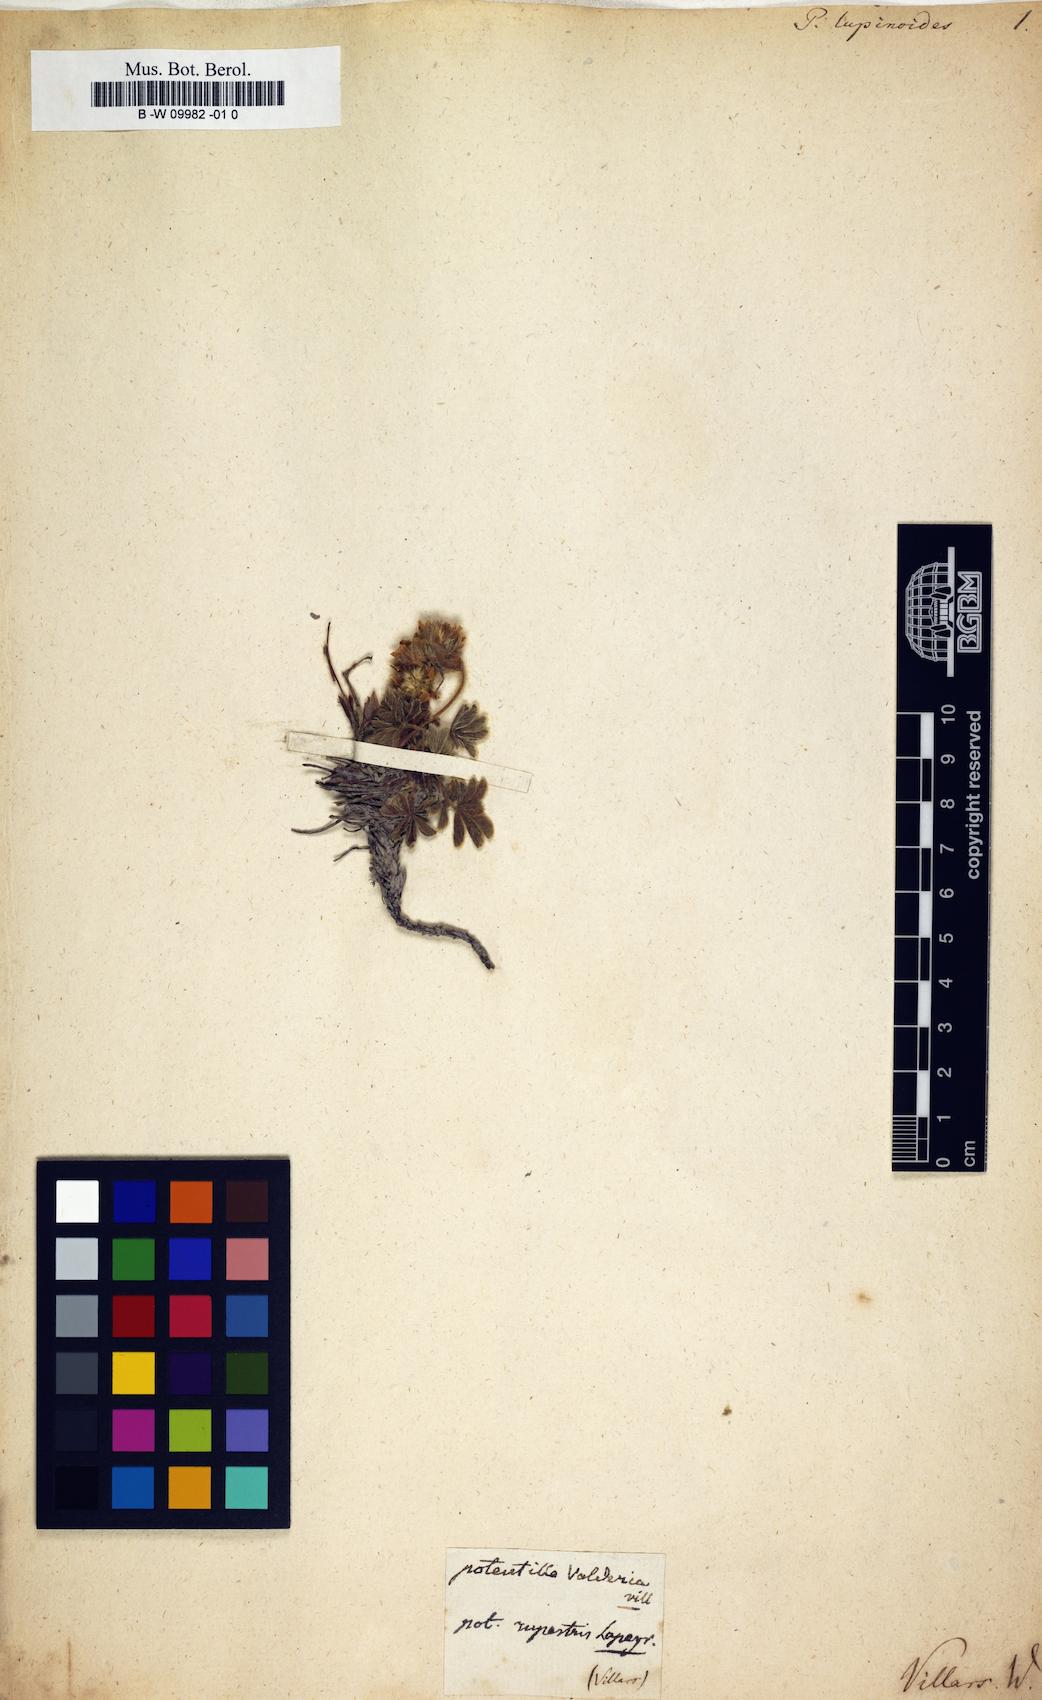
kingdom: Plantae
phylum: Tracheophyta
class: Magnoliopsida
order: Rosales
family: Rosaceae
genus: Potentilla
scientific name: Potentilla nivalis
